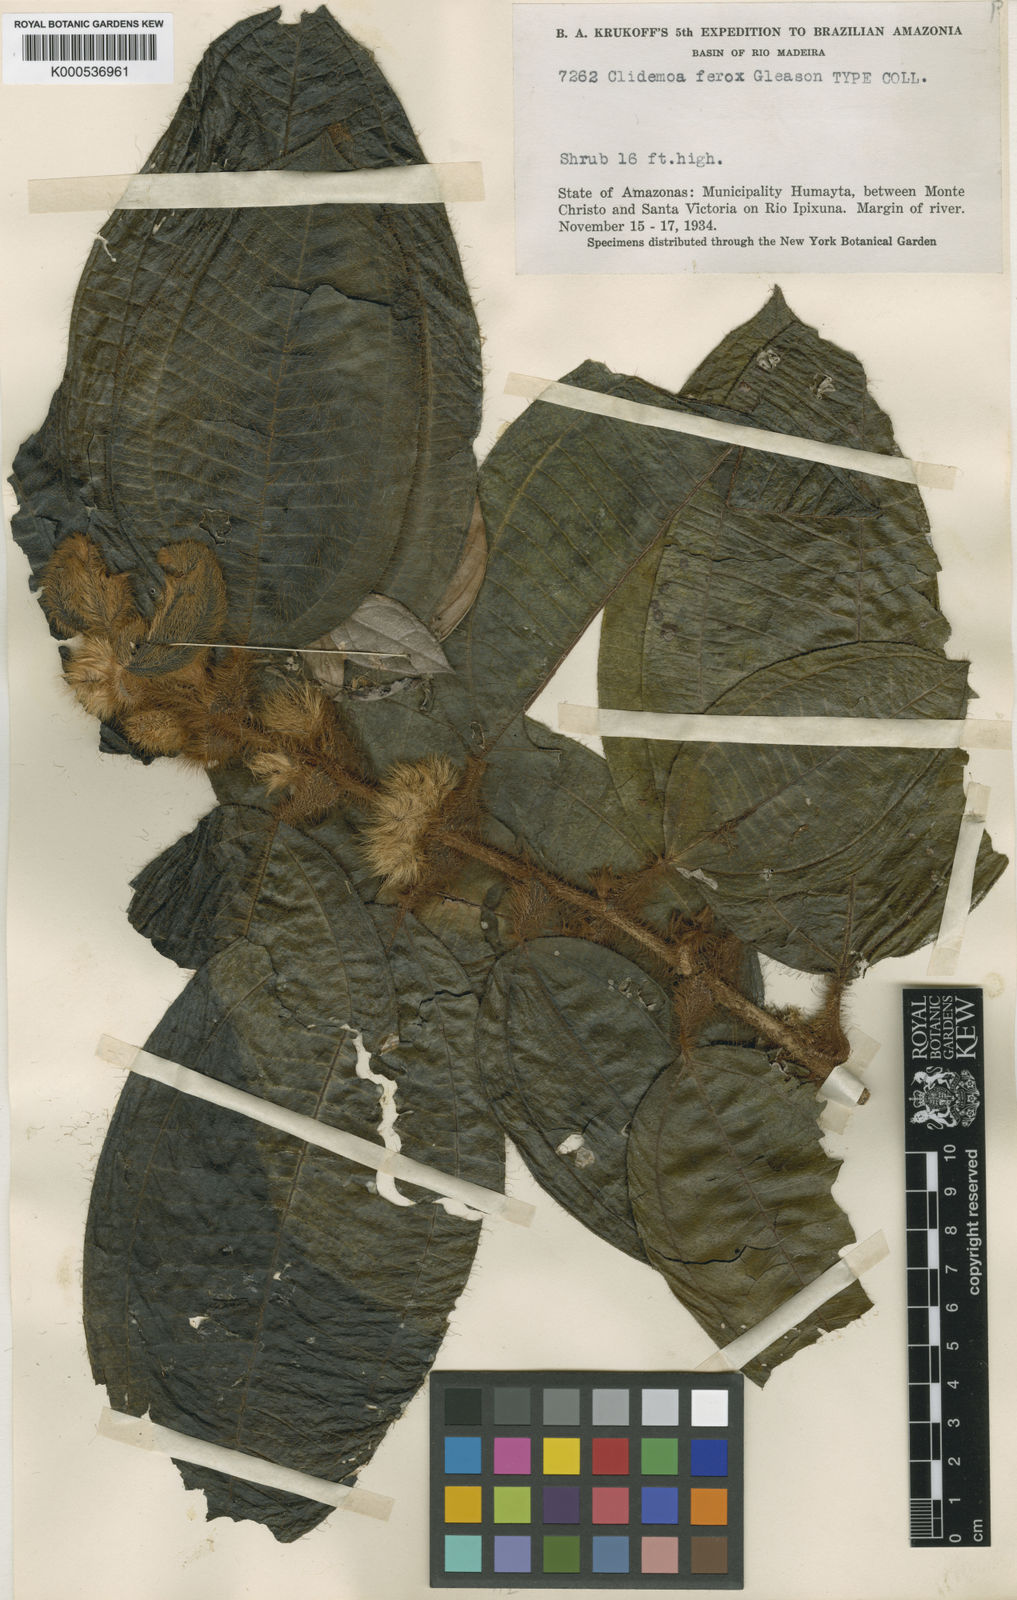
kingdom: Plantae
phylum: Tracheophyta
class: Magnoliopsida
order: Myrtales
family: Melastomataceae
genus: Miconia
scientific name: Miconia Clidemia ferox
